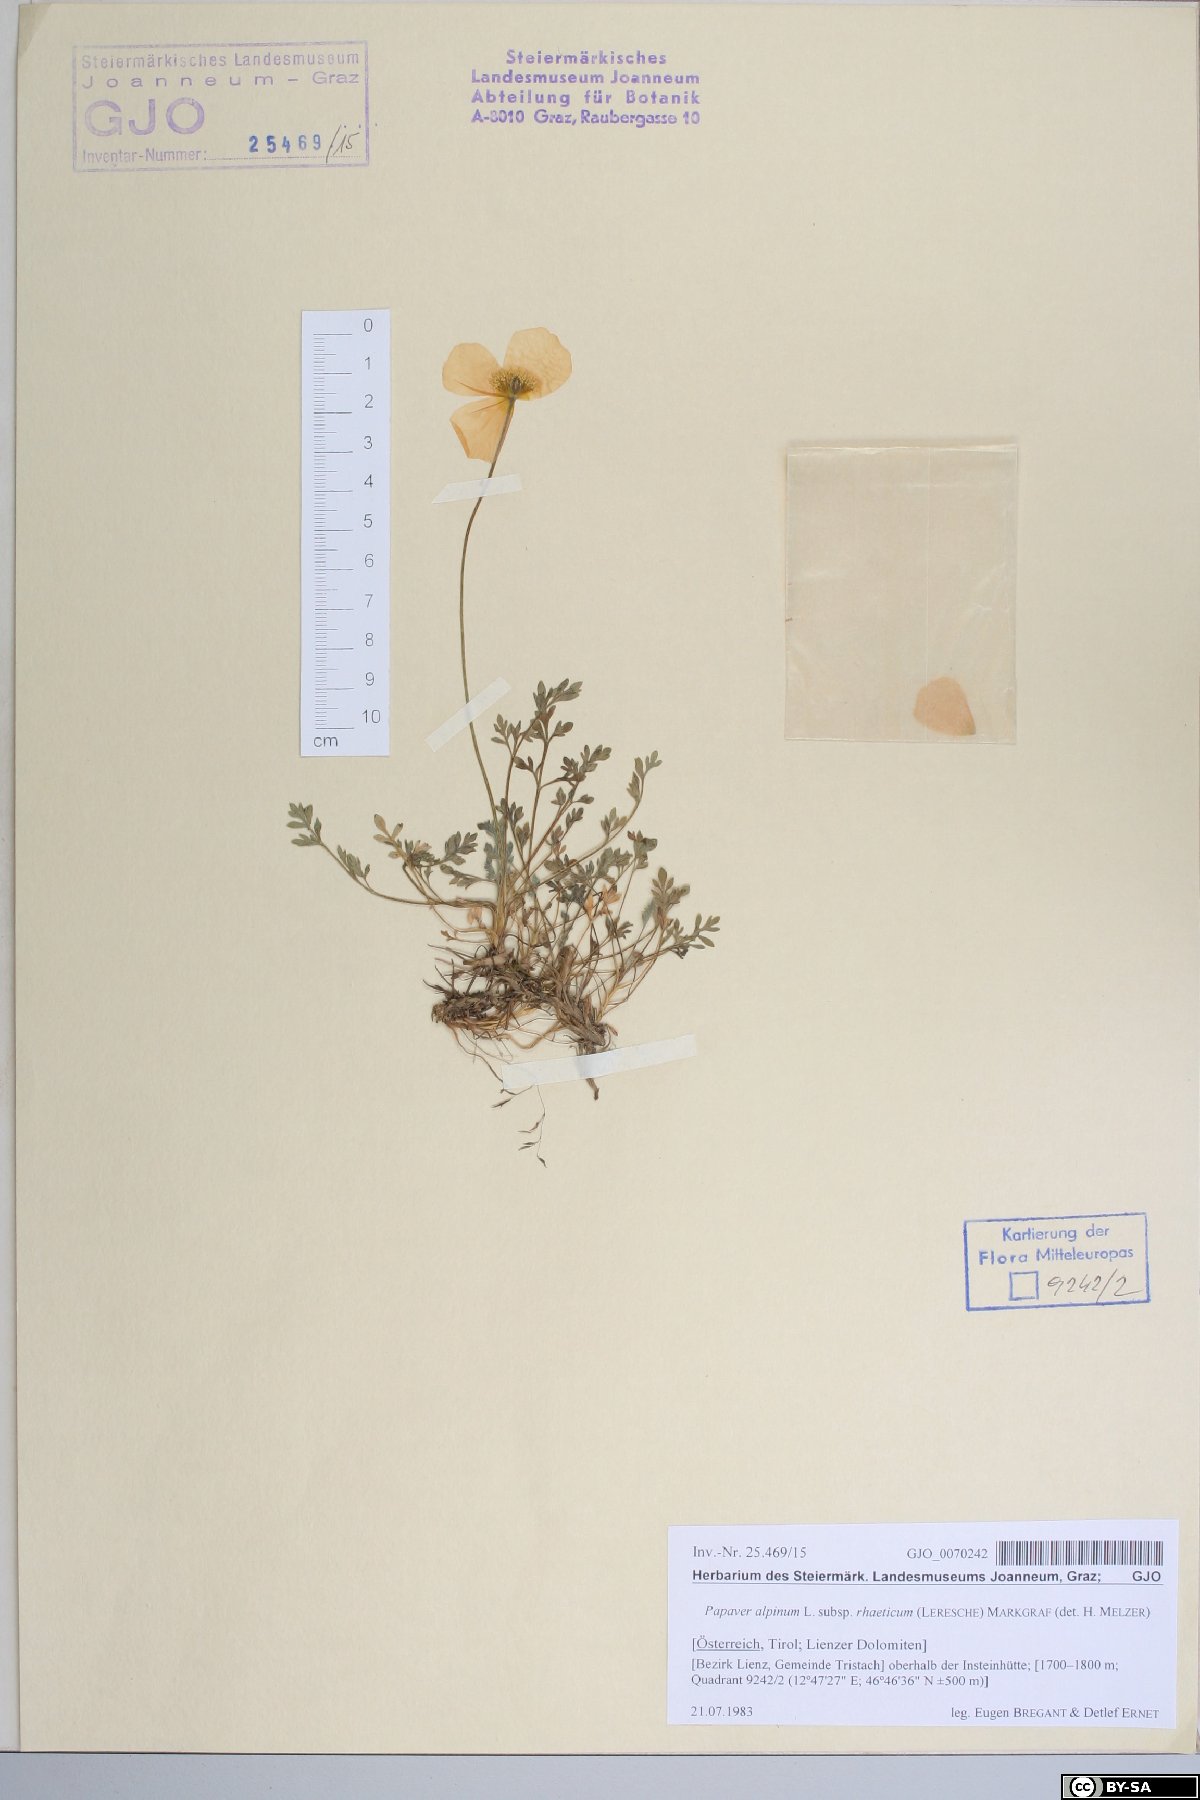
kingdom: Plantae
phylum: Tracheophyta
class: Magnoliopsida
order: Ranunculales
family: Papaveraceae
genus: Papaver
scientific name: Papaver alpinum
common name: Austrian poppy
